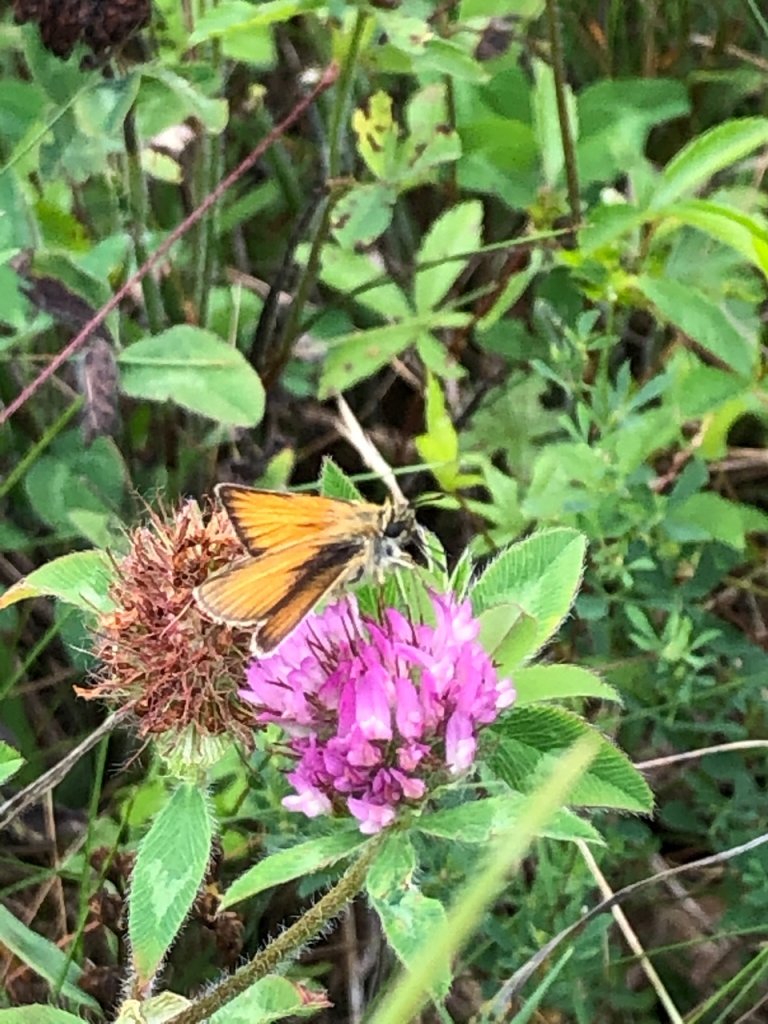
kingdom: Animalia
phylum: Arthropoda
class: Insecta
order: Lepidoptera
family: Hesperiidae
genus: Thymelicus
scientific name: Thymelicus lineola
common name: European Skipper
